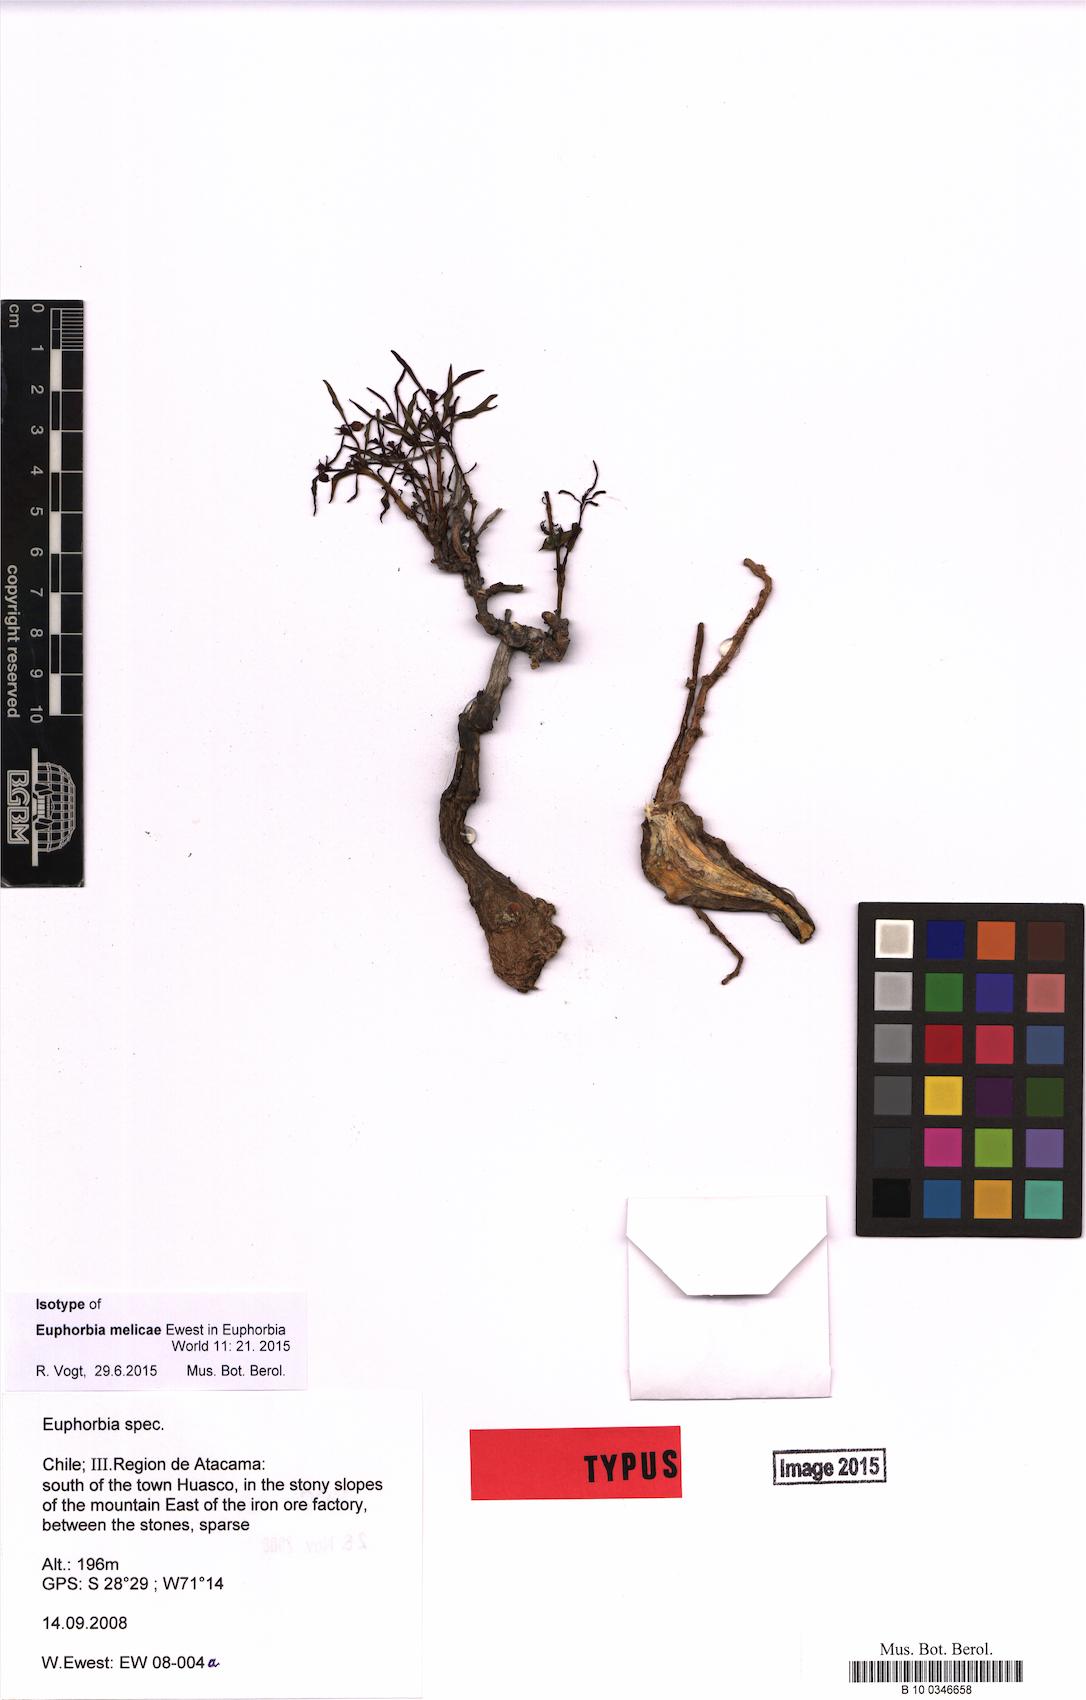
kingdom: Plantae
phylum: Tracheophyta
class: Magnoliopsida
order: Malpighiales
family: Euphorbiaceae
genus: Euphorbia
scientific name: Euphorbia melicae
